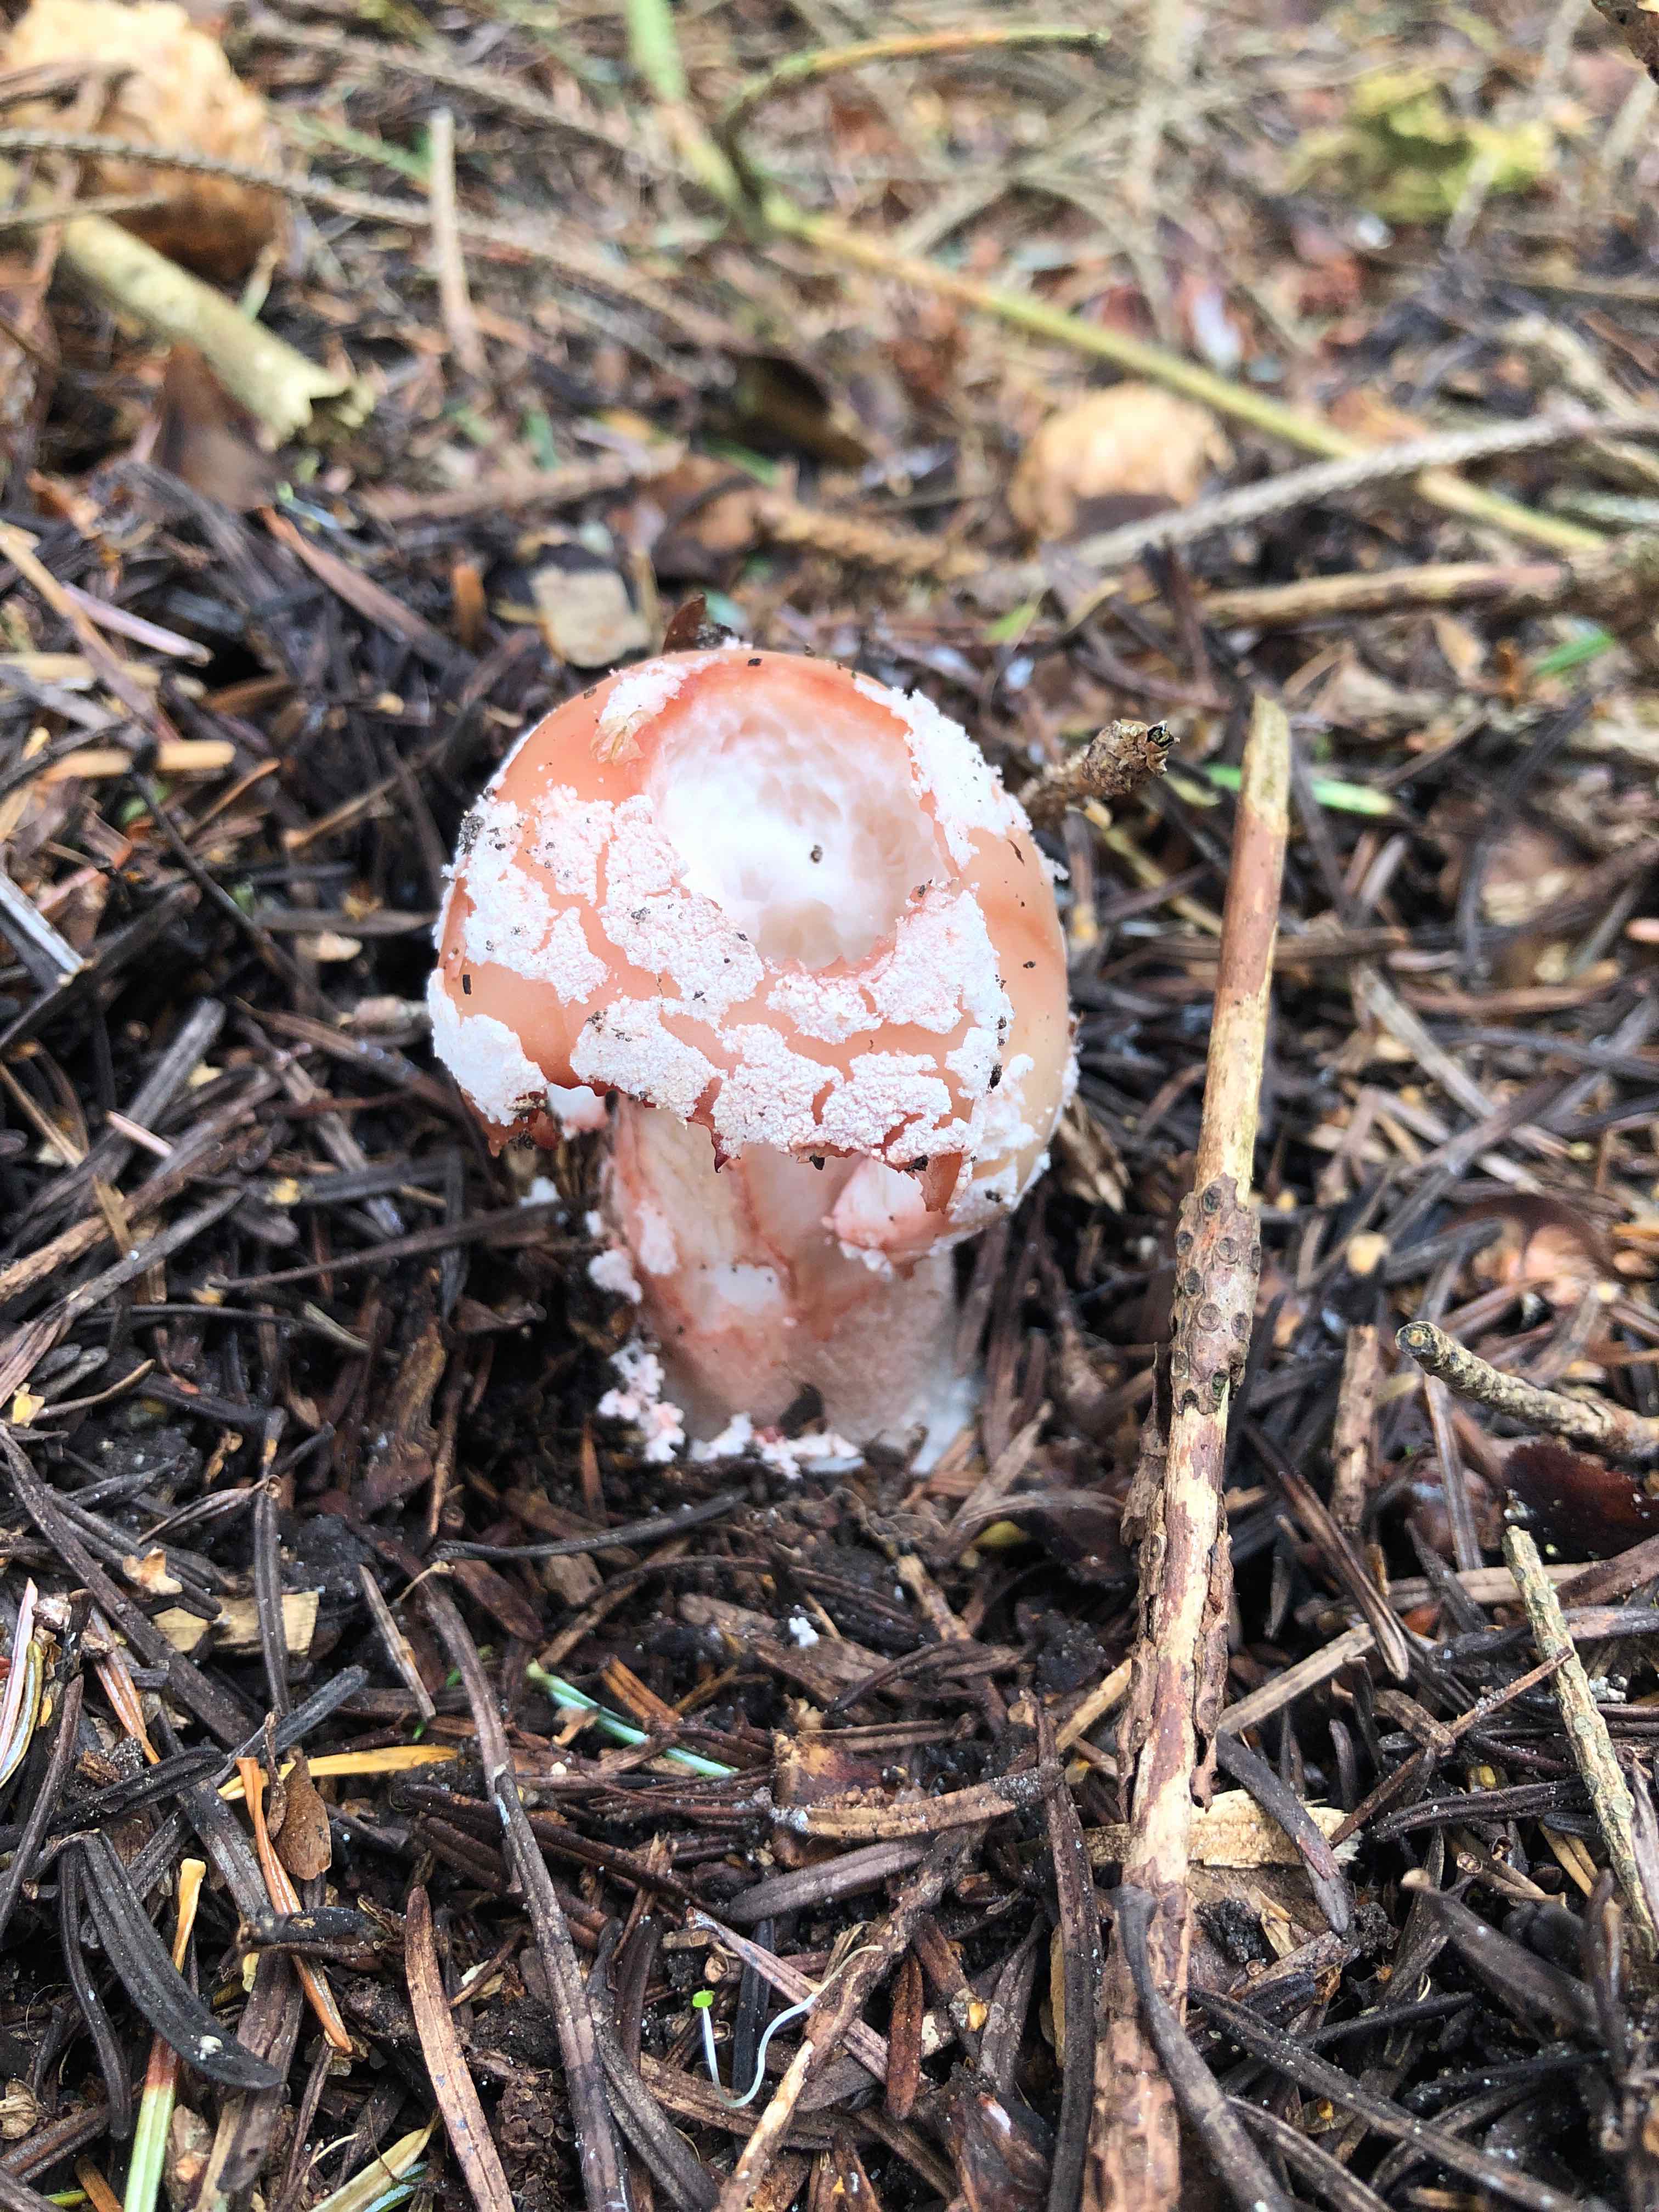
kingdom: Fungi
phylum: Basidiomycota
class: Agaricomycetes
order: Agaricales
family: Amanitaceae
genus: Amanita
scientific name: Amanita rubescens
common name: rødmende fluesvamp
